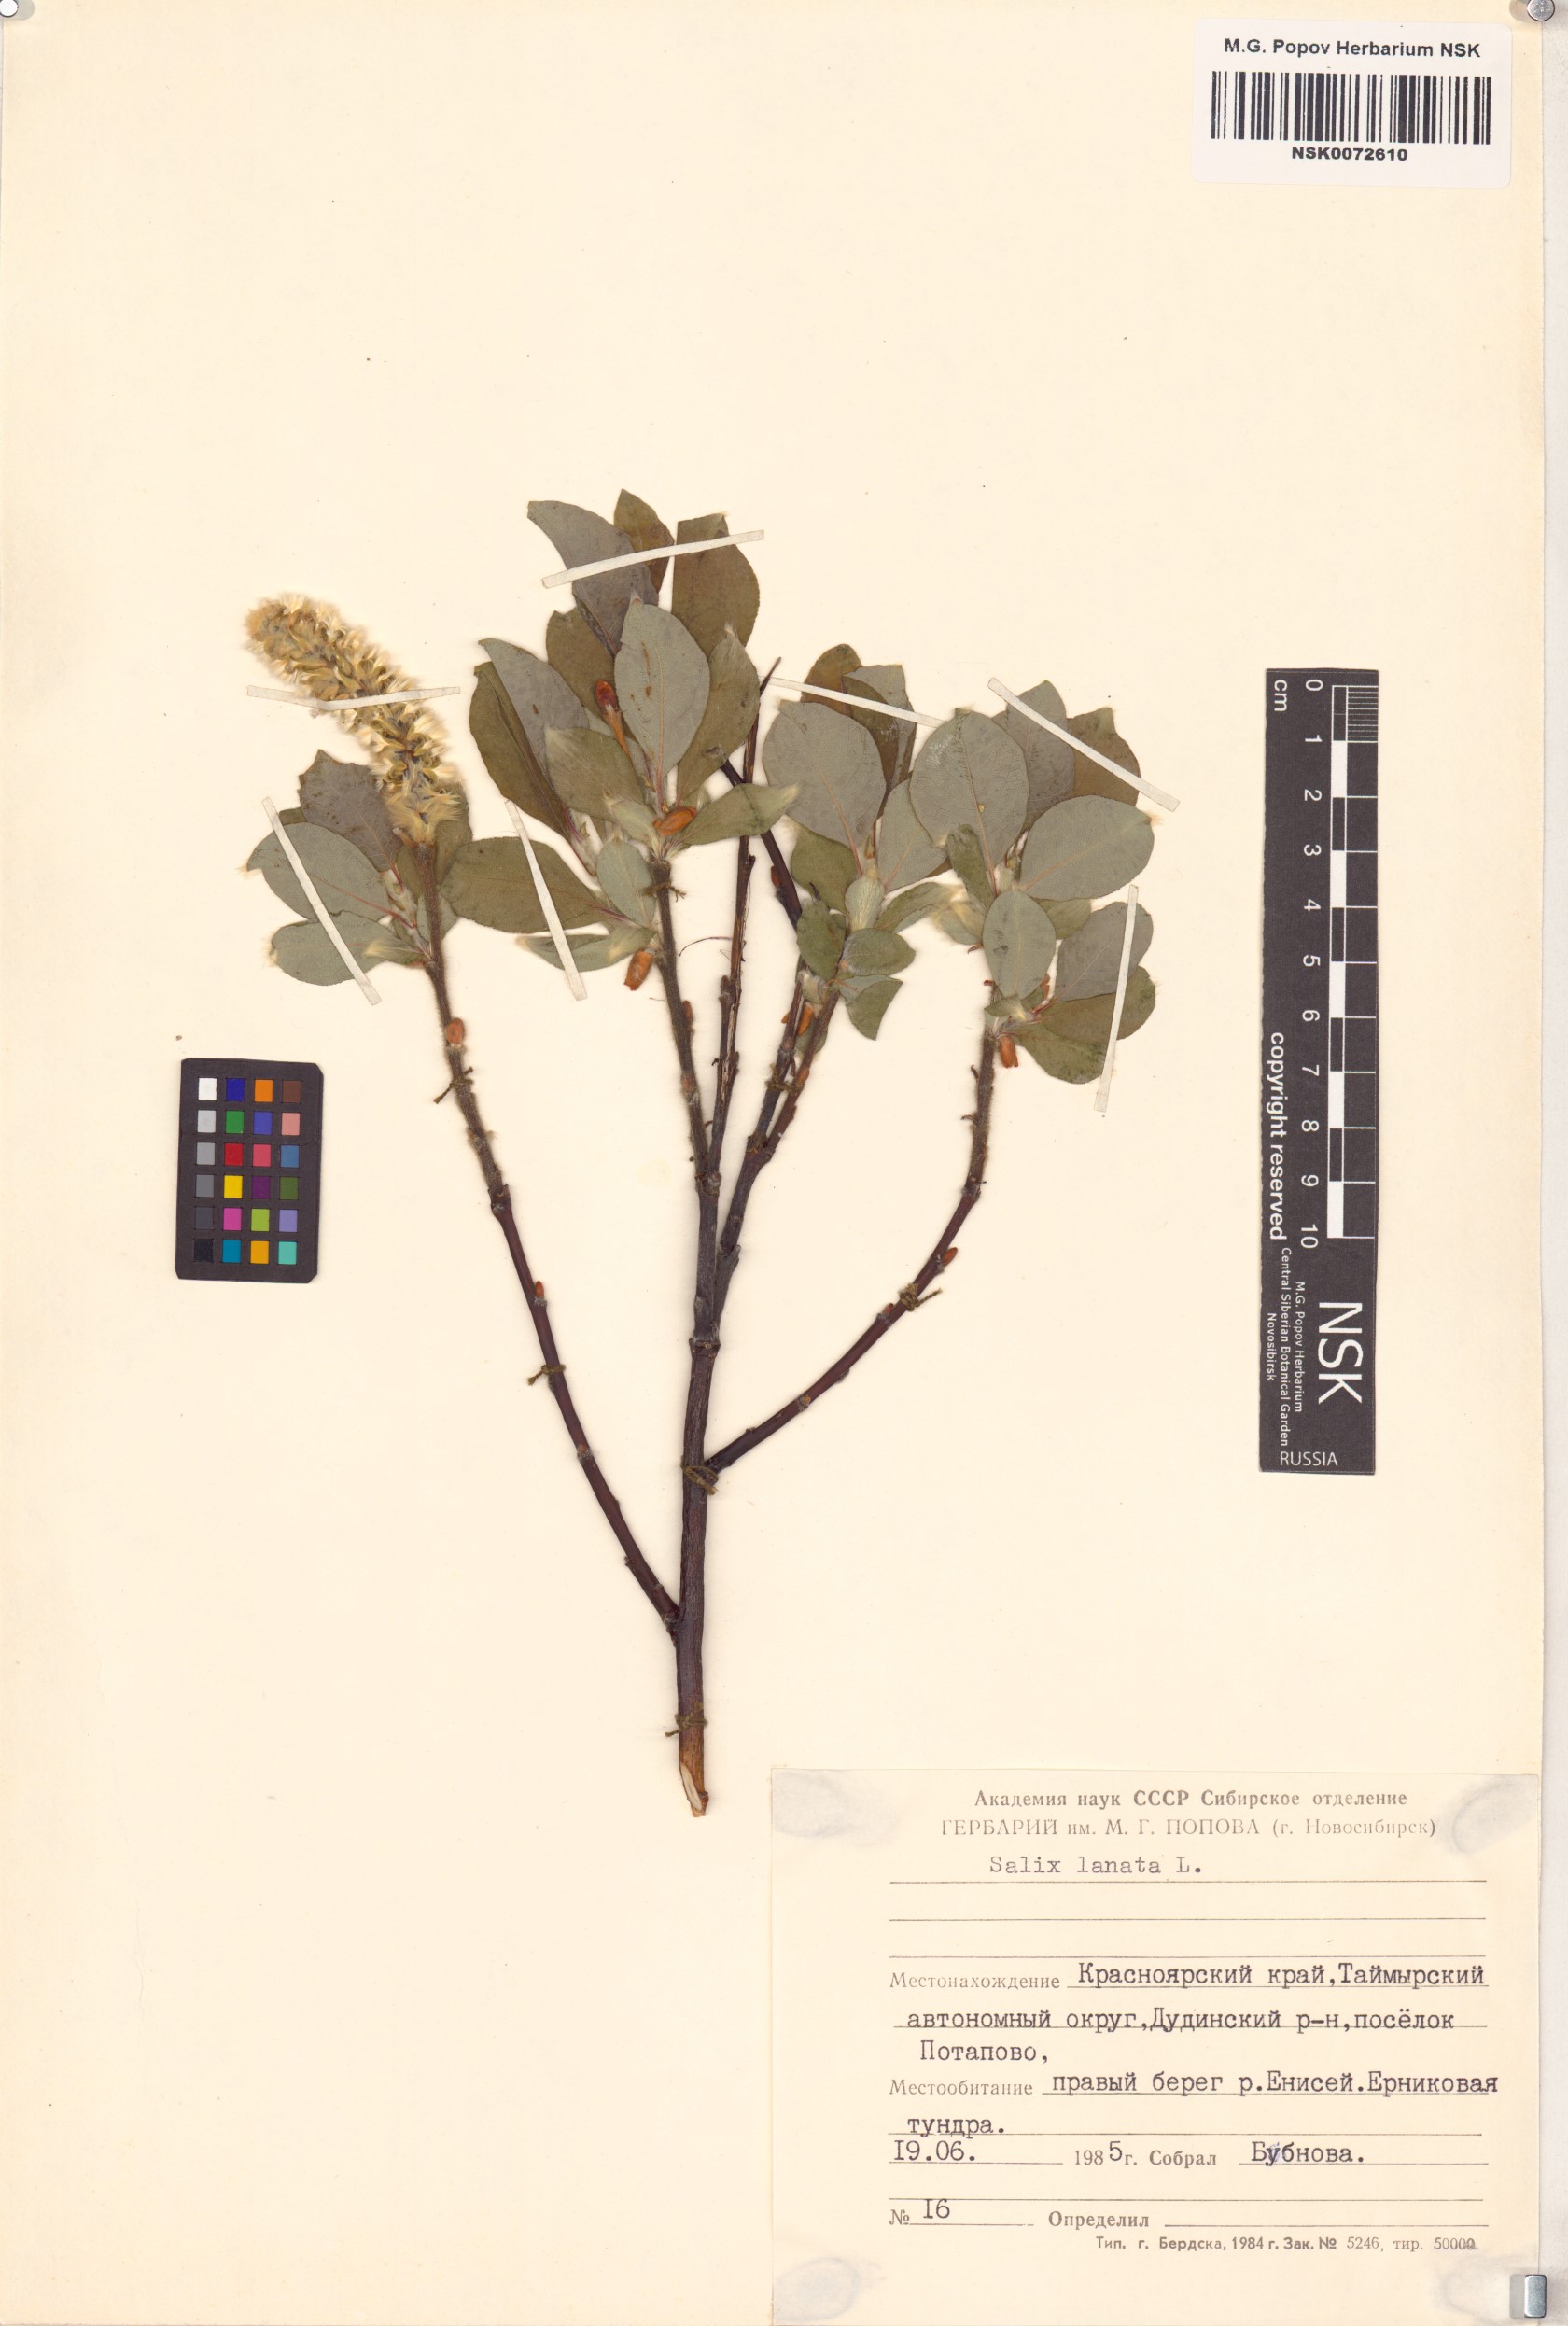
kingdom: Plantae
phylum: Tracheophyta
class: Magnoliopsida
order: Malpighiales
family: Salicaceae
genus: Salix
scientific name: Salix lanata
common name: Woolly willow
